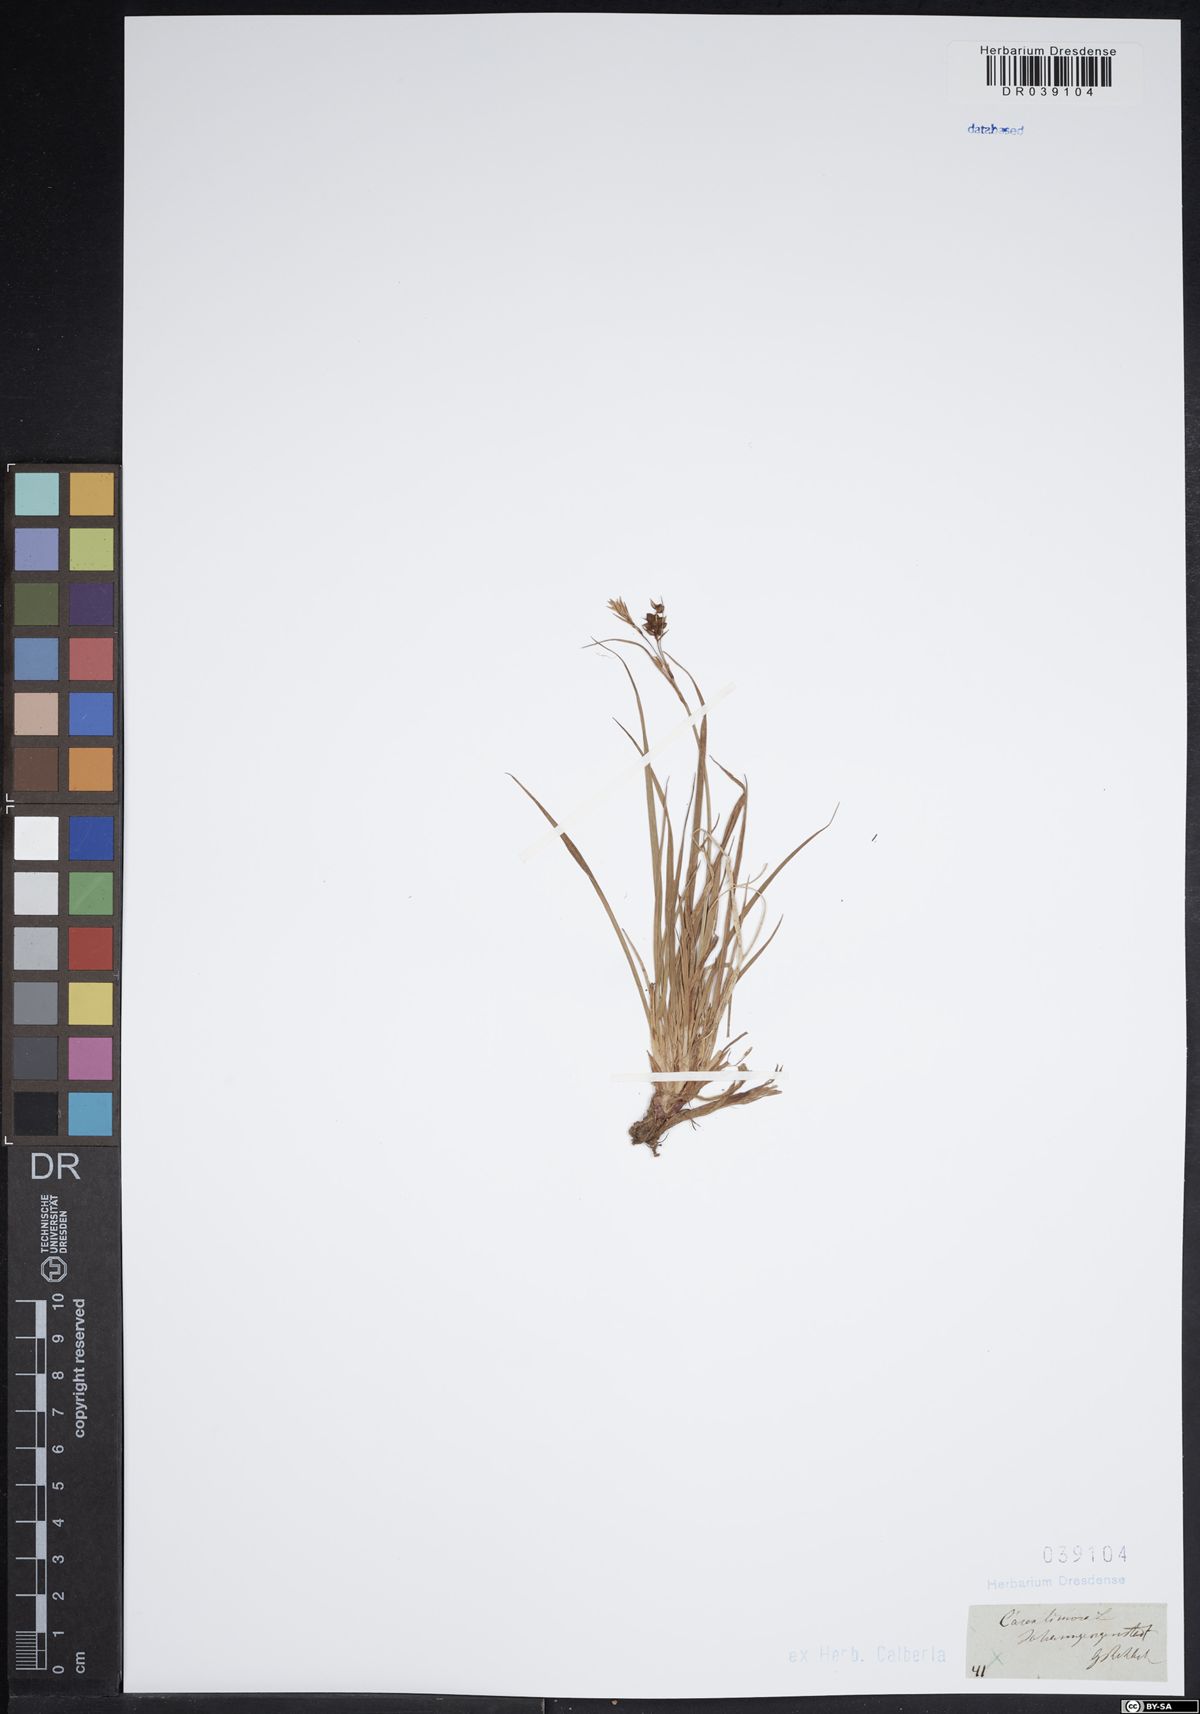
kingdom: Plantae
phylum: Tracheophyta
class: Liliopsida
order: Poales
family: Cyperaceae
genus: Carex
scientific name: Carex limosa
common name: Bog sedge
